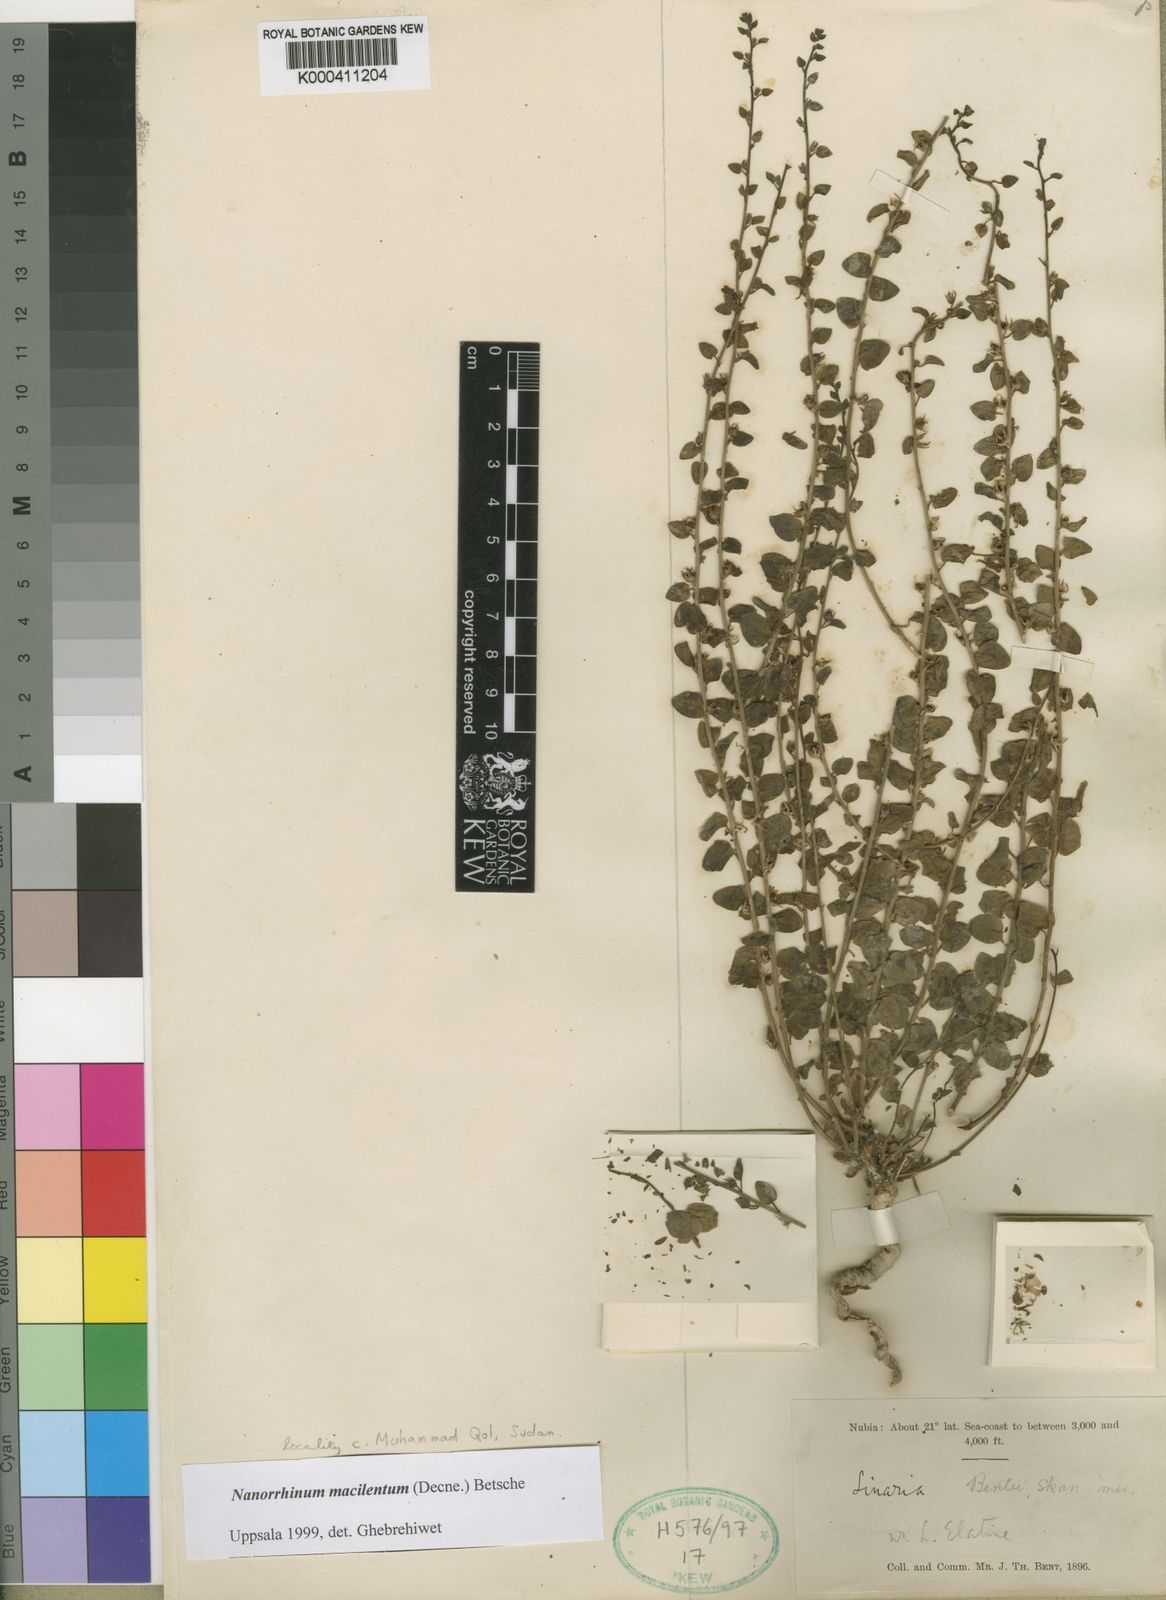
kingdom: Plantae
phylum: Tracheophyta
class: Magnoliopsida
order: Lamiales
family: Plantaginaceae
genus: Nanorrhinum
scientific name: Nanorrhinum macilentum
